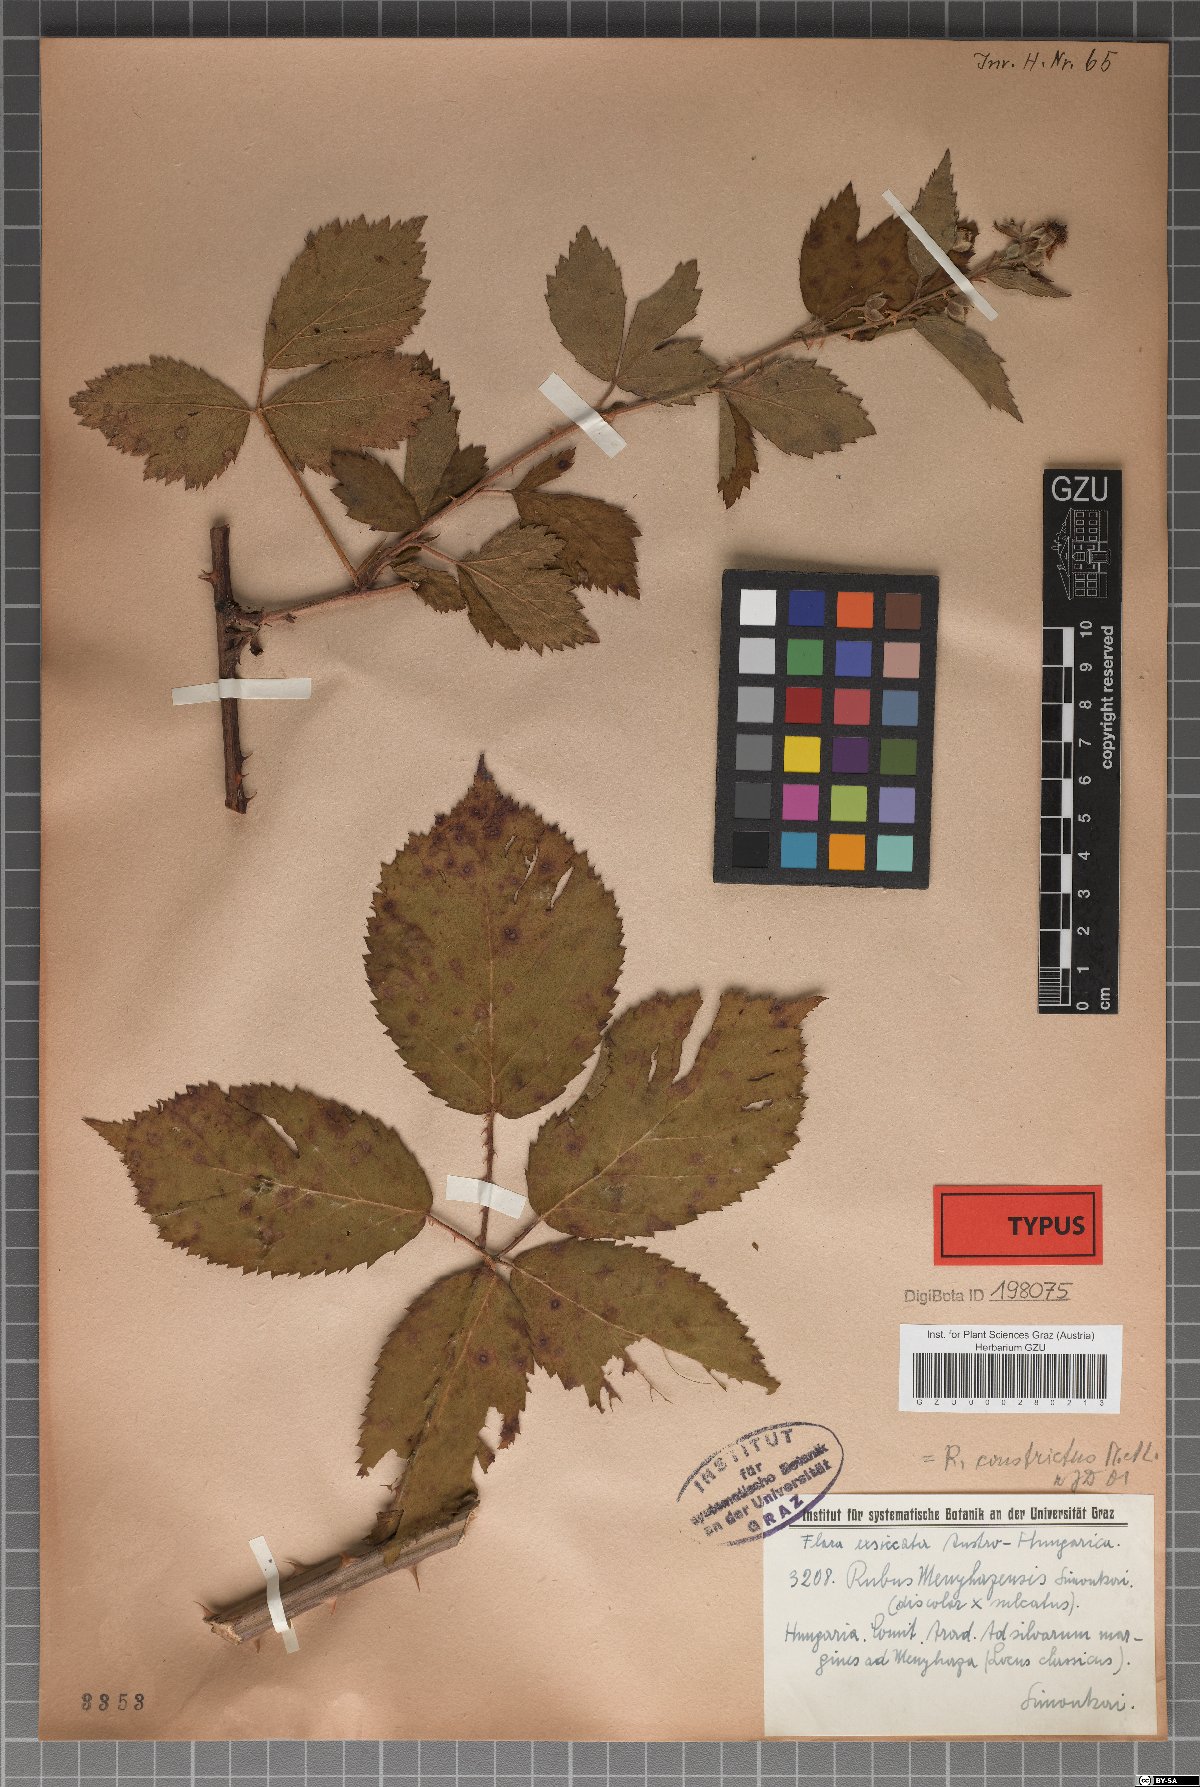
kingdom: Plantae
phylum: Tracheophyta
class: Magnoliopsida
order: Rosales
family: Rosaceae
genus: Rubus
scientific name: Rubus constrictus
